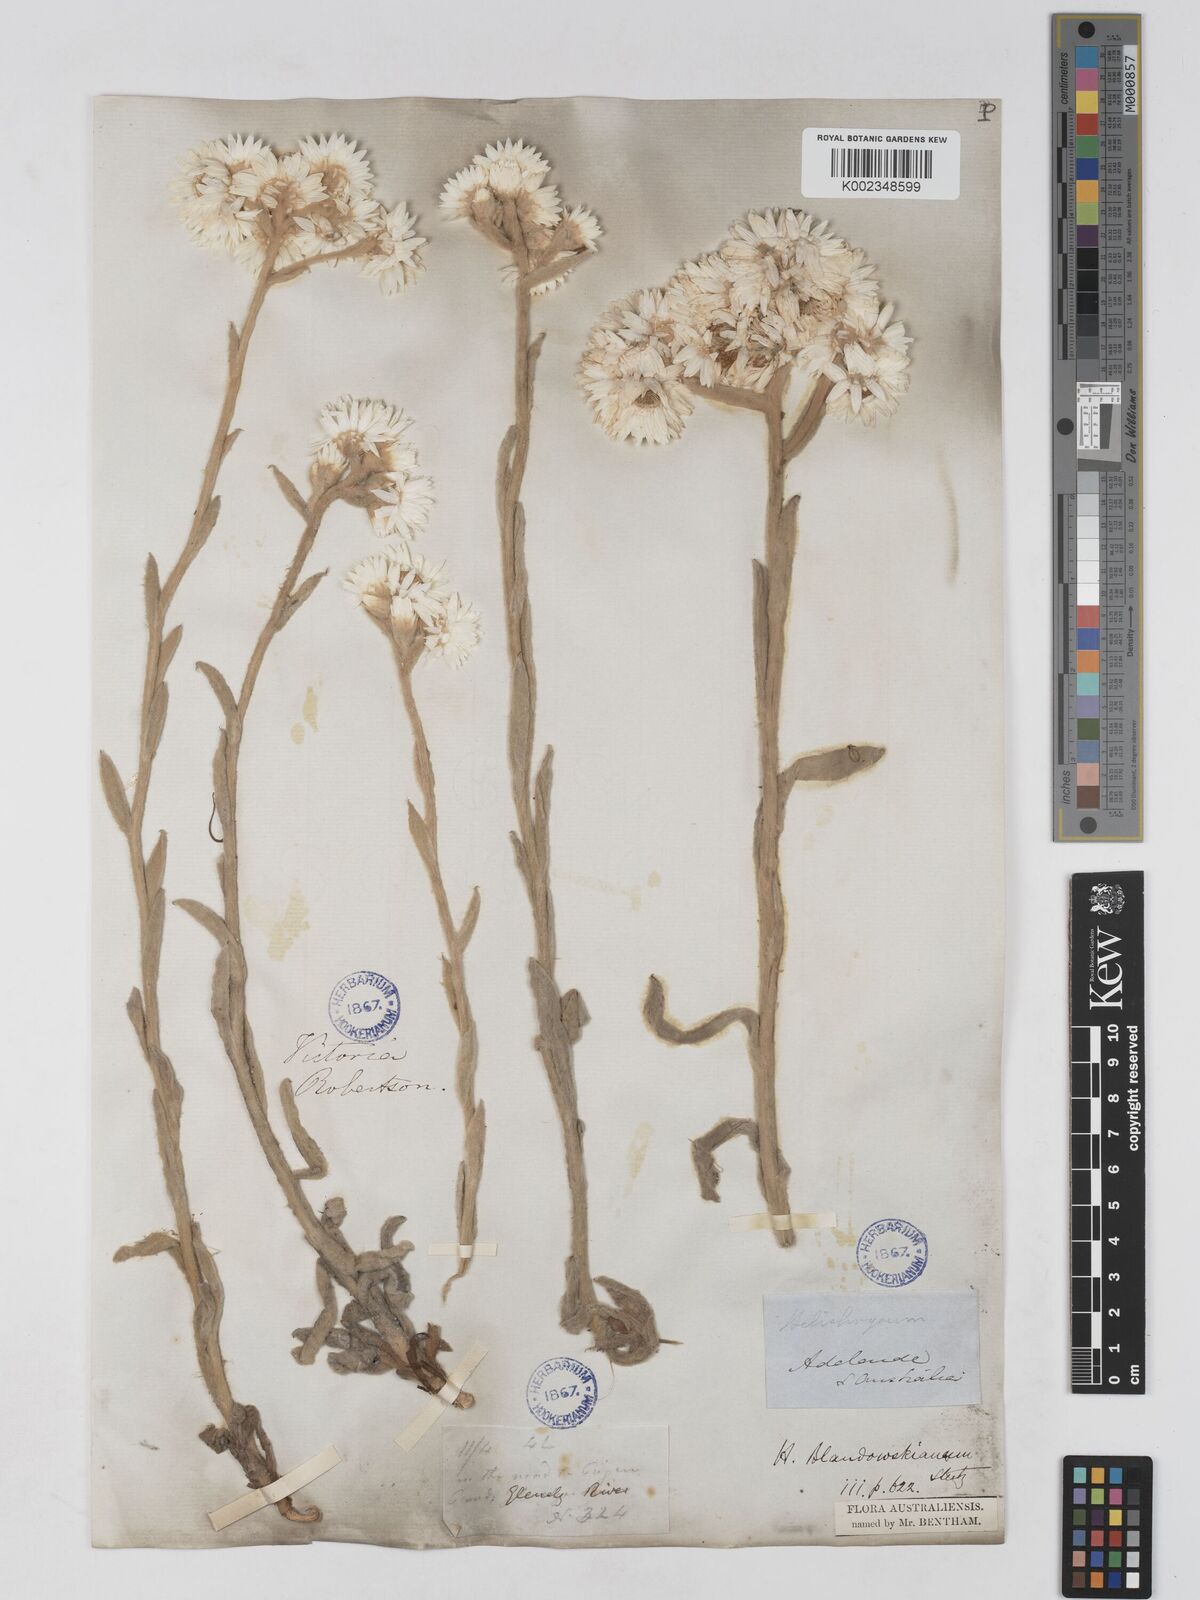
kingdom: Plantae
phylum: Tracheophyta
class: Magnoliopsida
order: Asterales
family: Asteraceae
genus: Argentipallium
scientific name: Argentipallium blandowskianum
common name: Woolly everlasting
